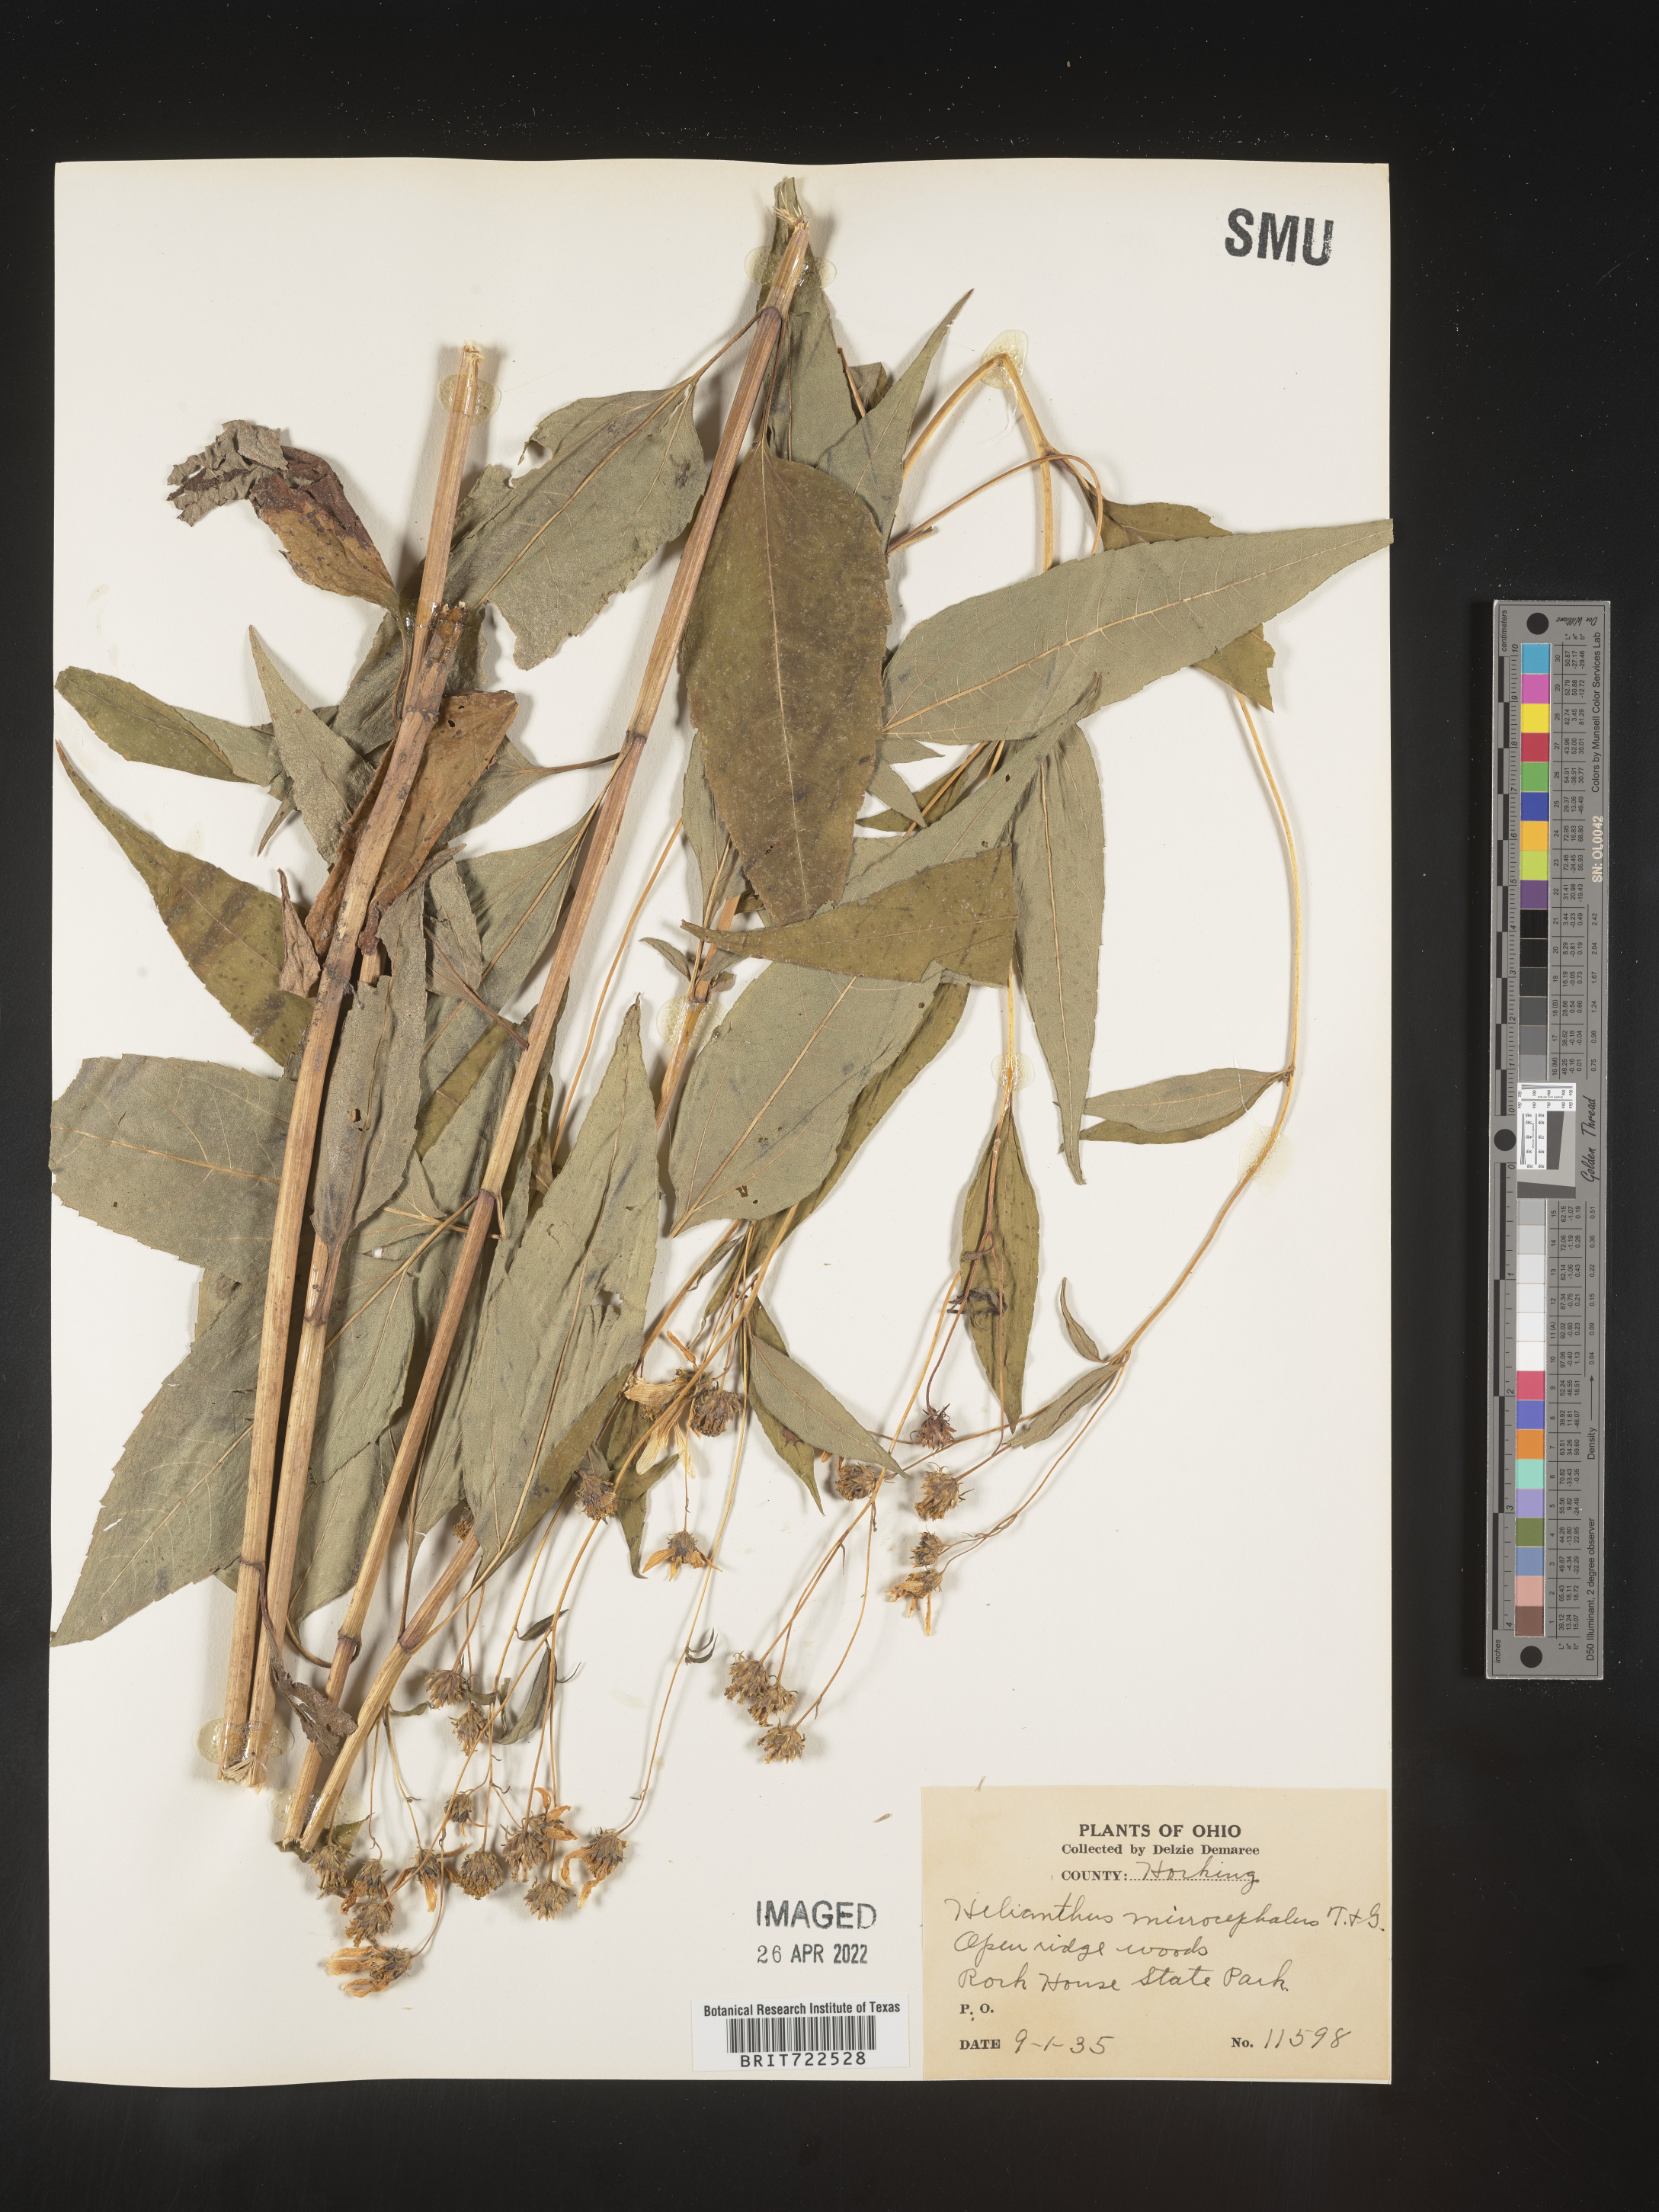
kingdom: Plantae
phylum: Tracheophyta
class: Magnoliopsida
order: Asterales
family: Asteraceae
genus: Helianthus
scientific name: Helianthus microcephalus
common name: Woodland sunflower
